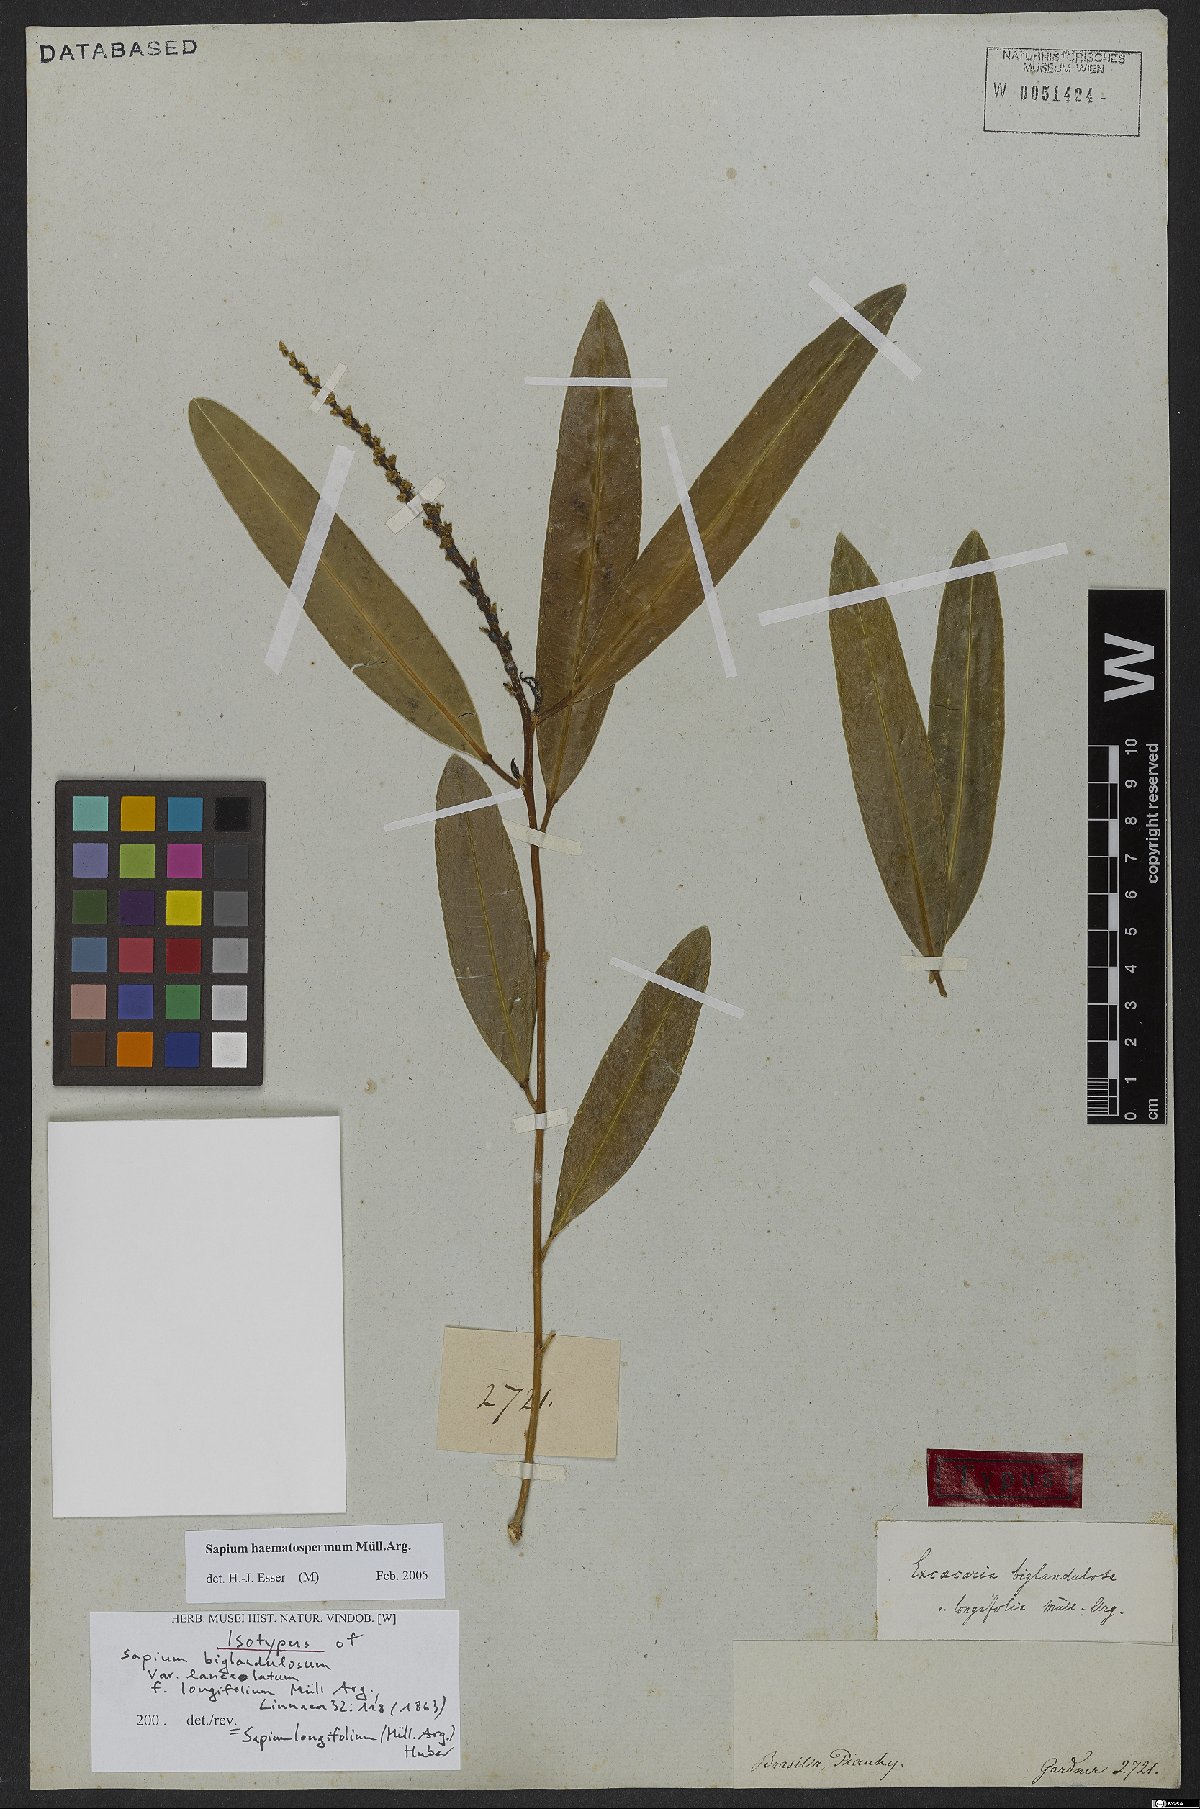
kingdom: Plantae
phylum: Tracheophyta
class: Magnoliopsida
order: Malpighiales
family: Euphorbiaceae
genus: Sapium
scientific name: Sapium haematospermum
